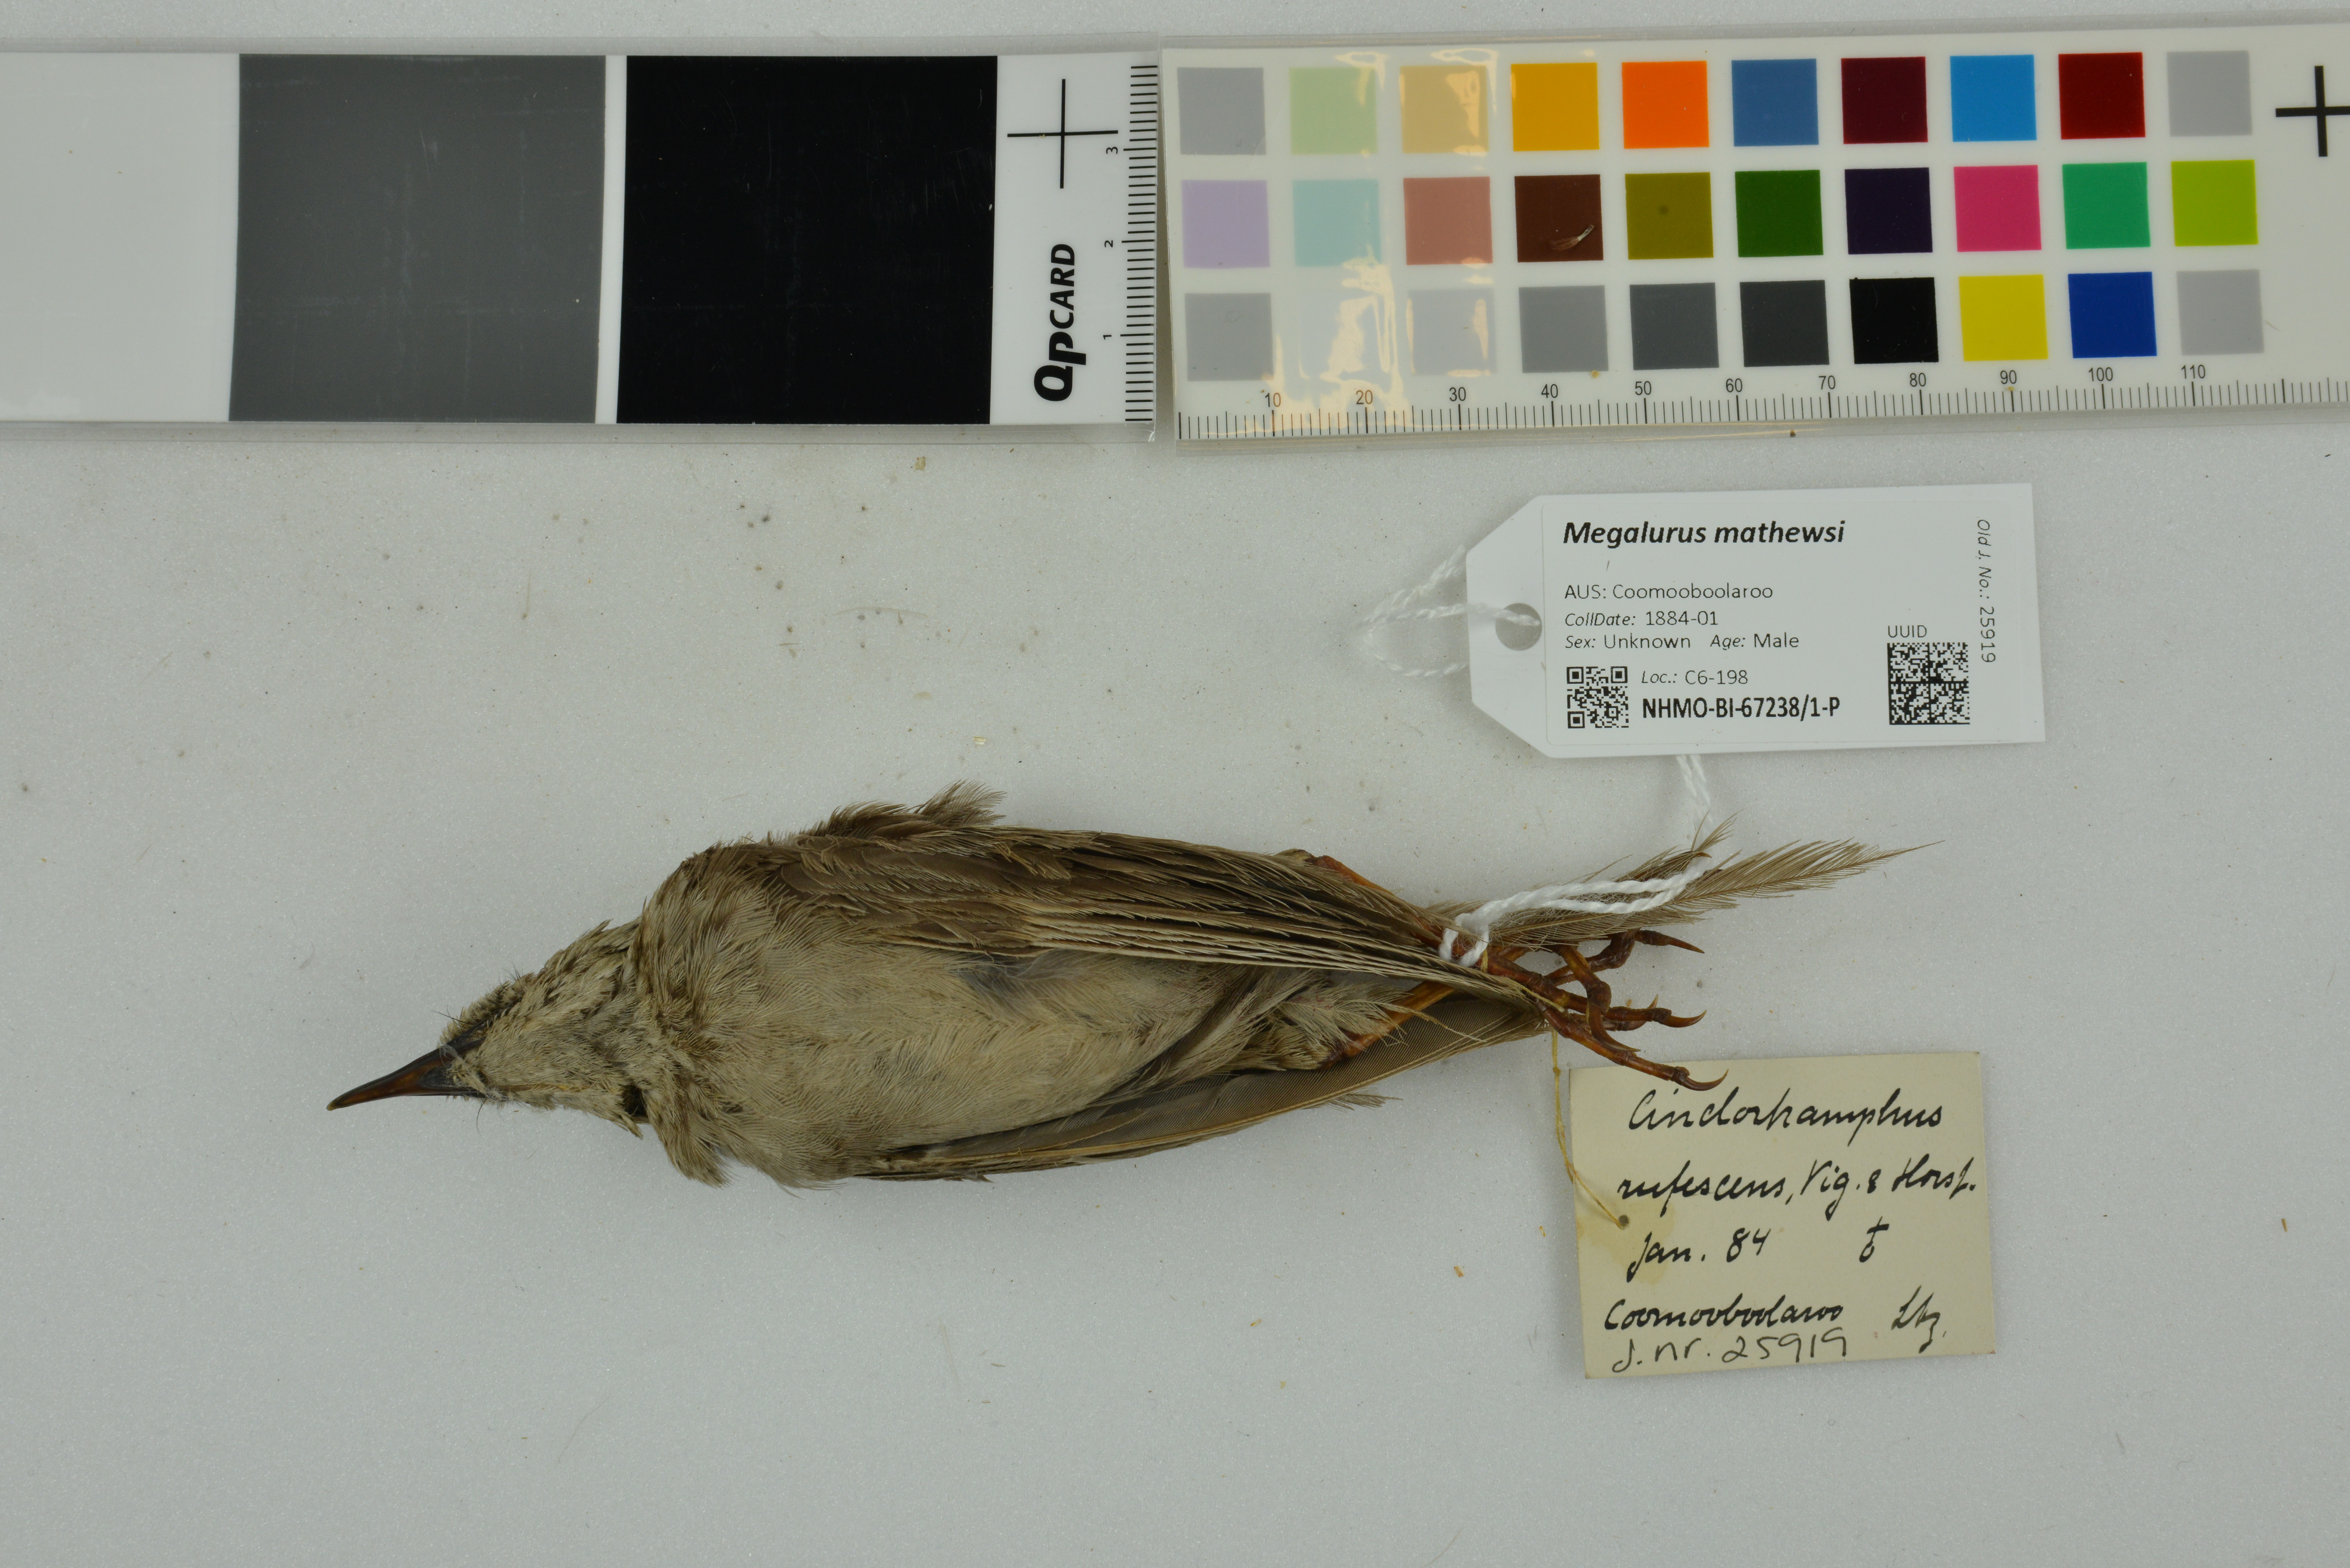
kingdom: Animalia
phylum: Chordata
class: Aves
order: Passeriformes
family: Locustellidae
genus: Megalurus
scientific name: Megalurus mathewsi
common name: Rufous songlark
